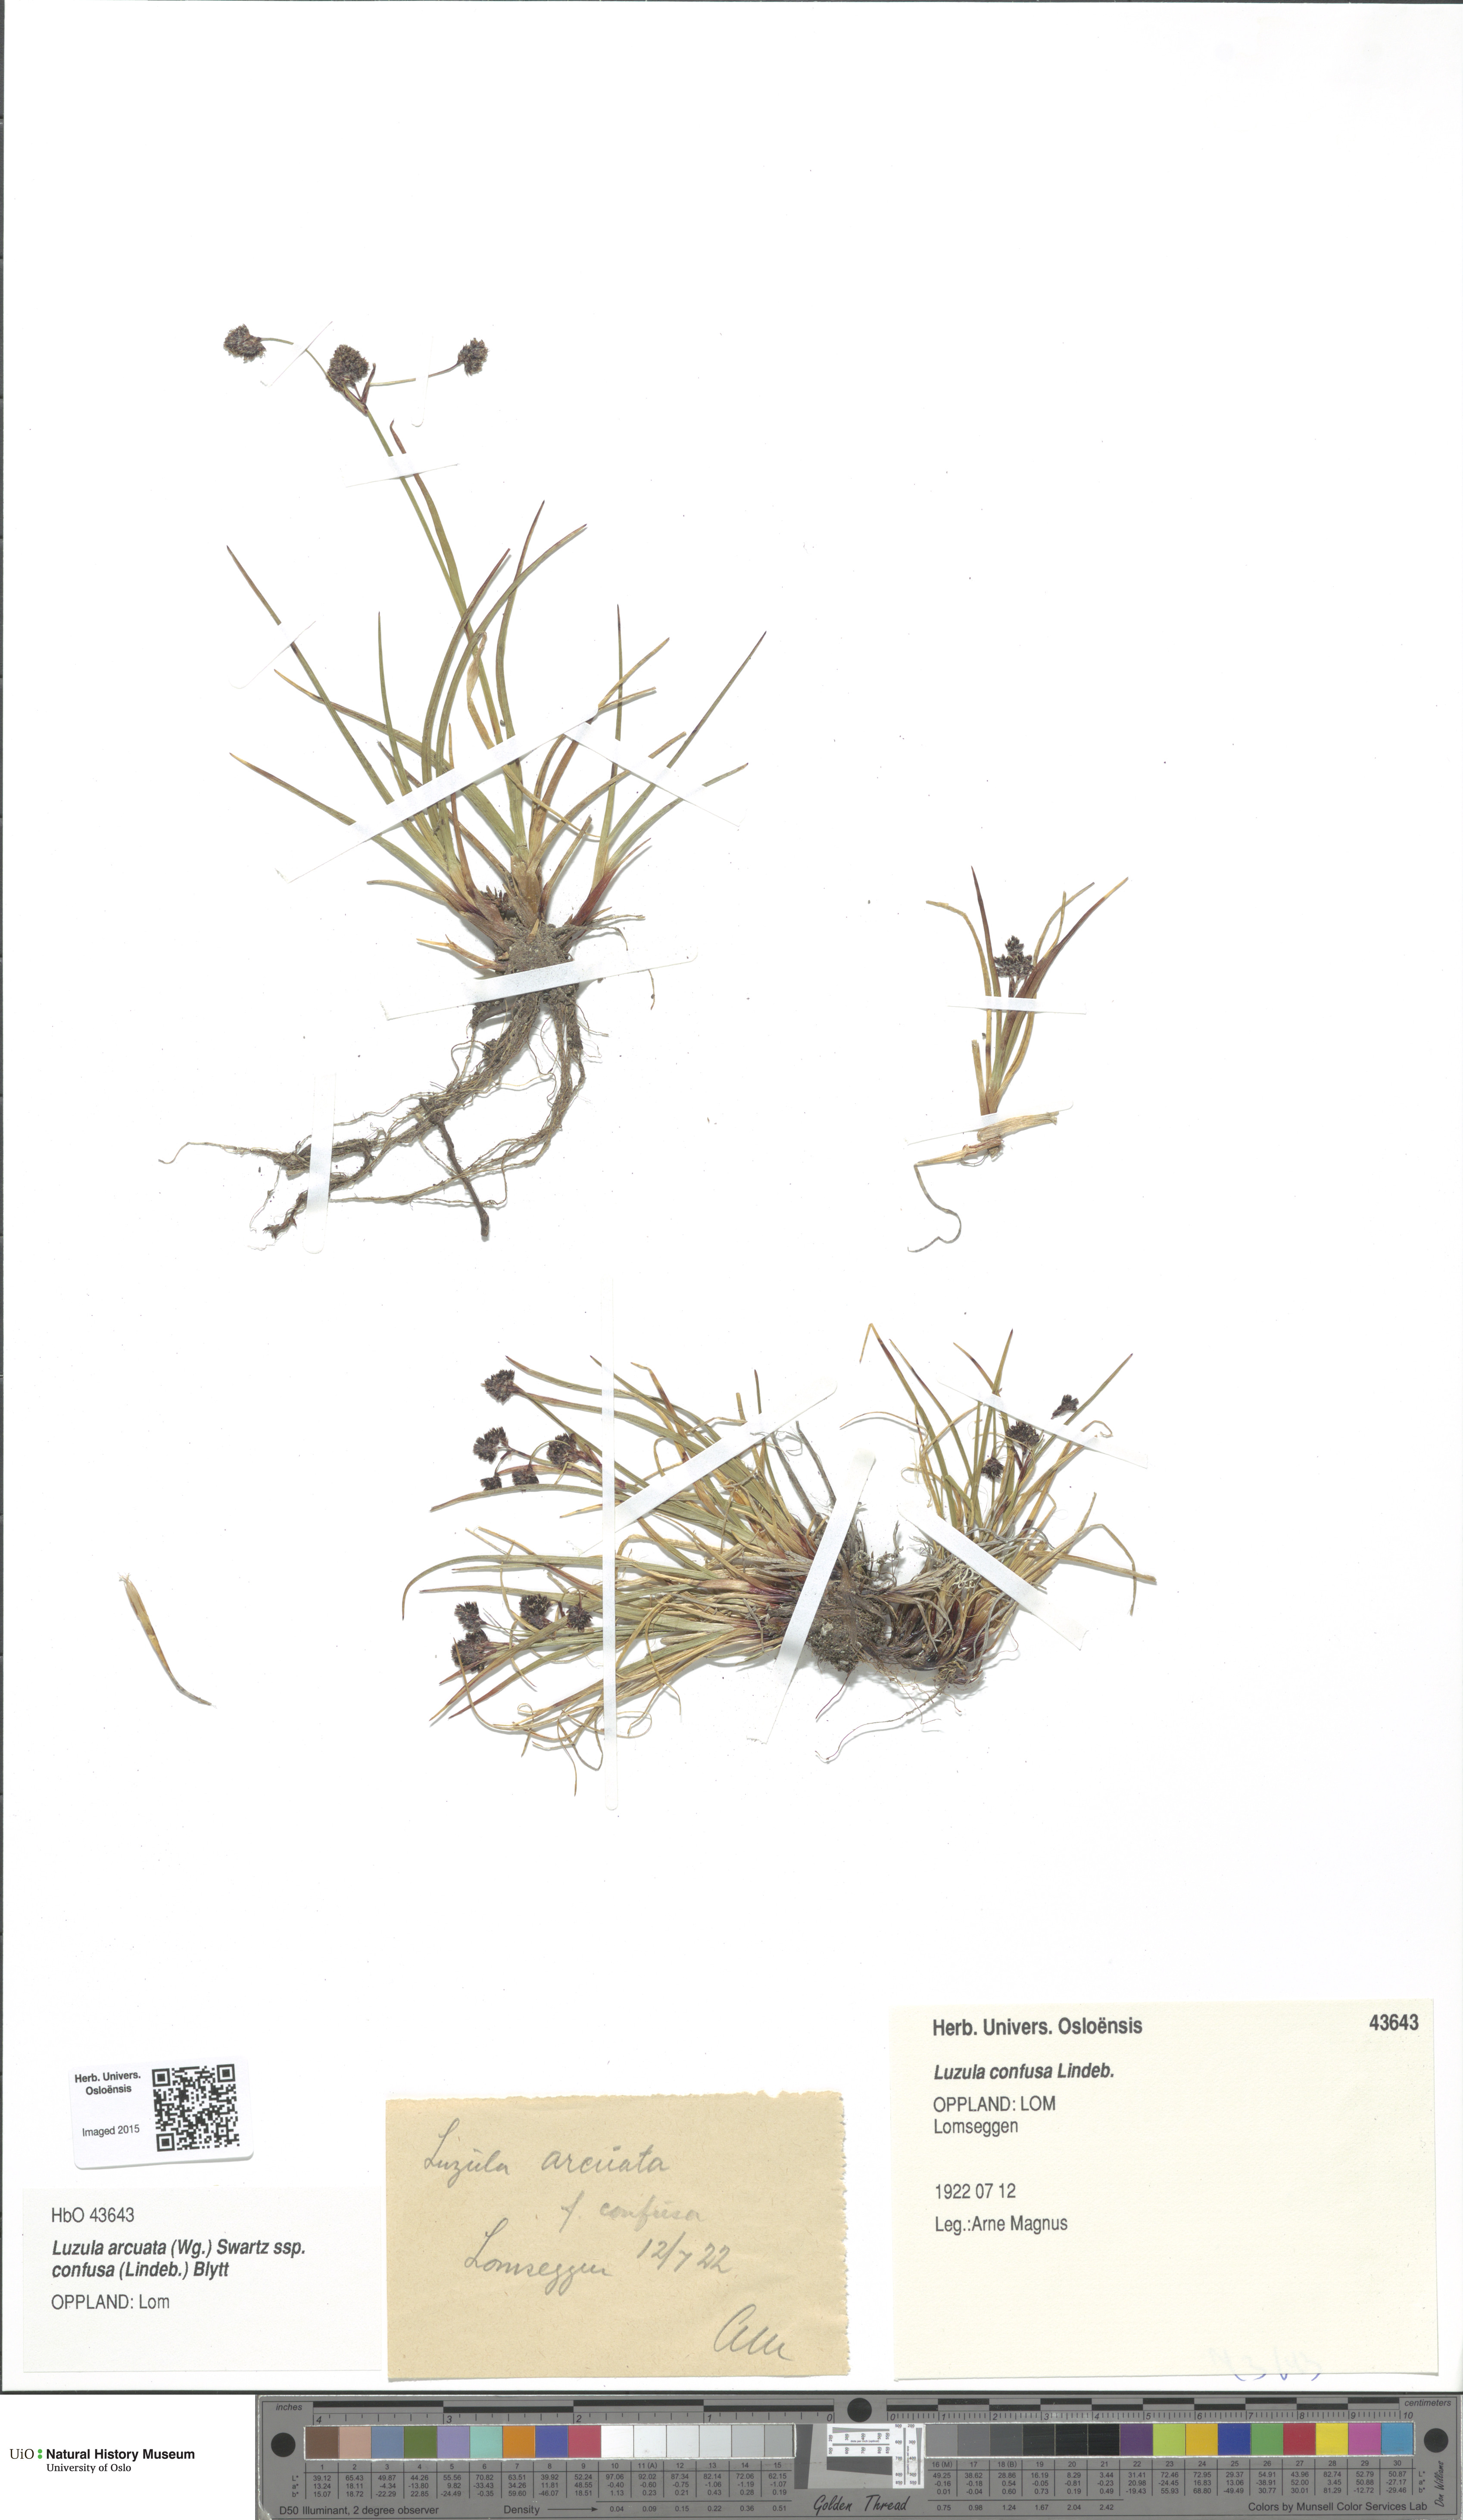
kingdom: Plantae
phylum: Tracheophyta
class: Liliopsida
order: Poales
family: Juncaceae
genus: Luzula
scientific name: Luzula confusa
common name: Northern wood rush
